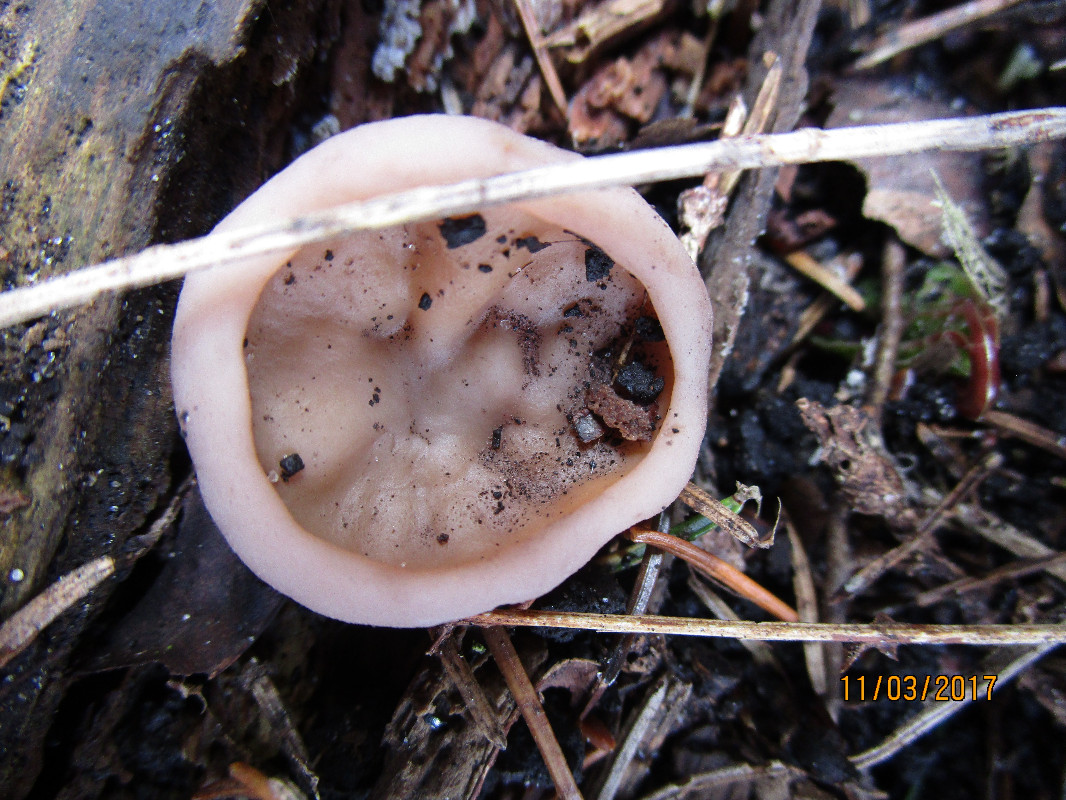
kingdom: Fungi
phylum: Ascomycota
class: Pezizomycetes
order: Pezizales
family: Discinaceae
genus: Discina
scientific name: Discina ancilis
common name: udbredt stenmorkel
